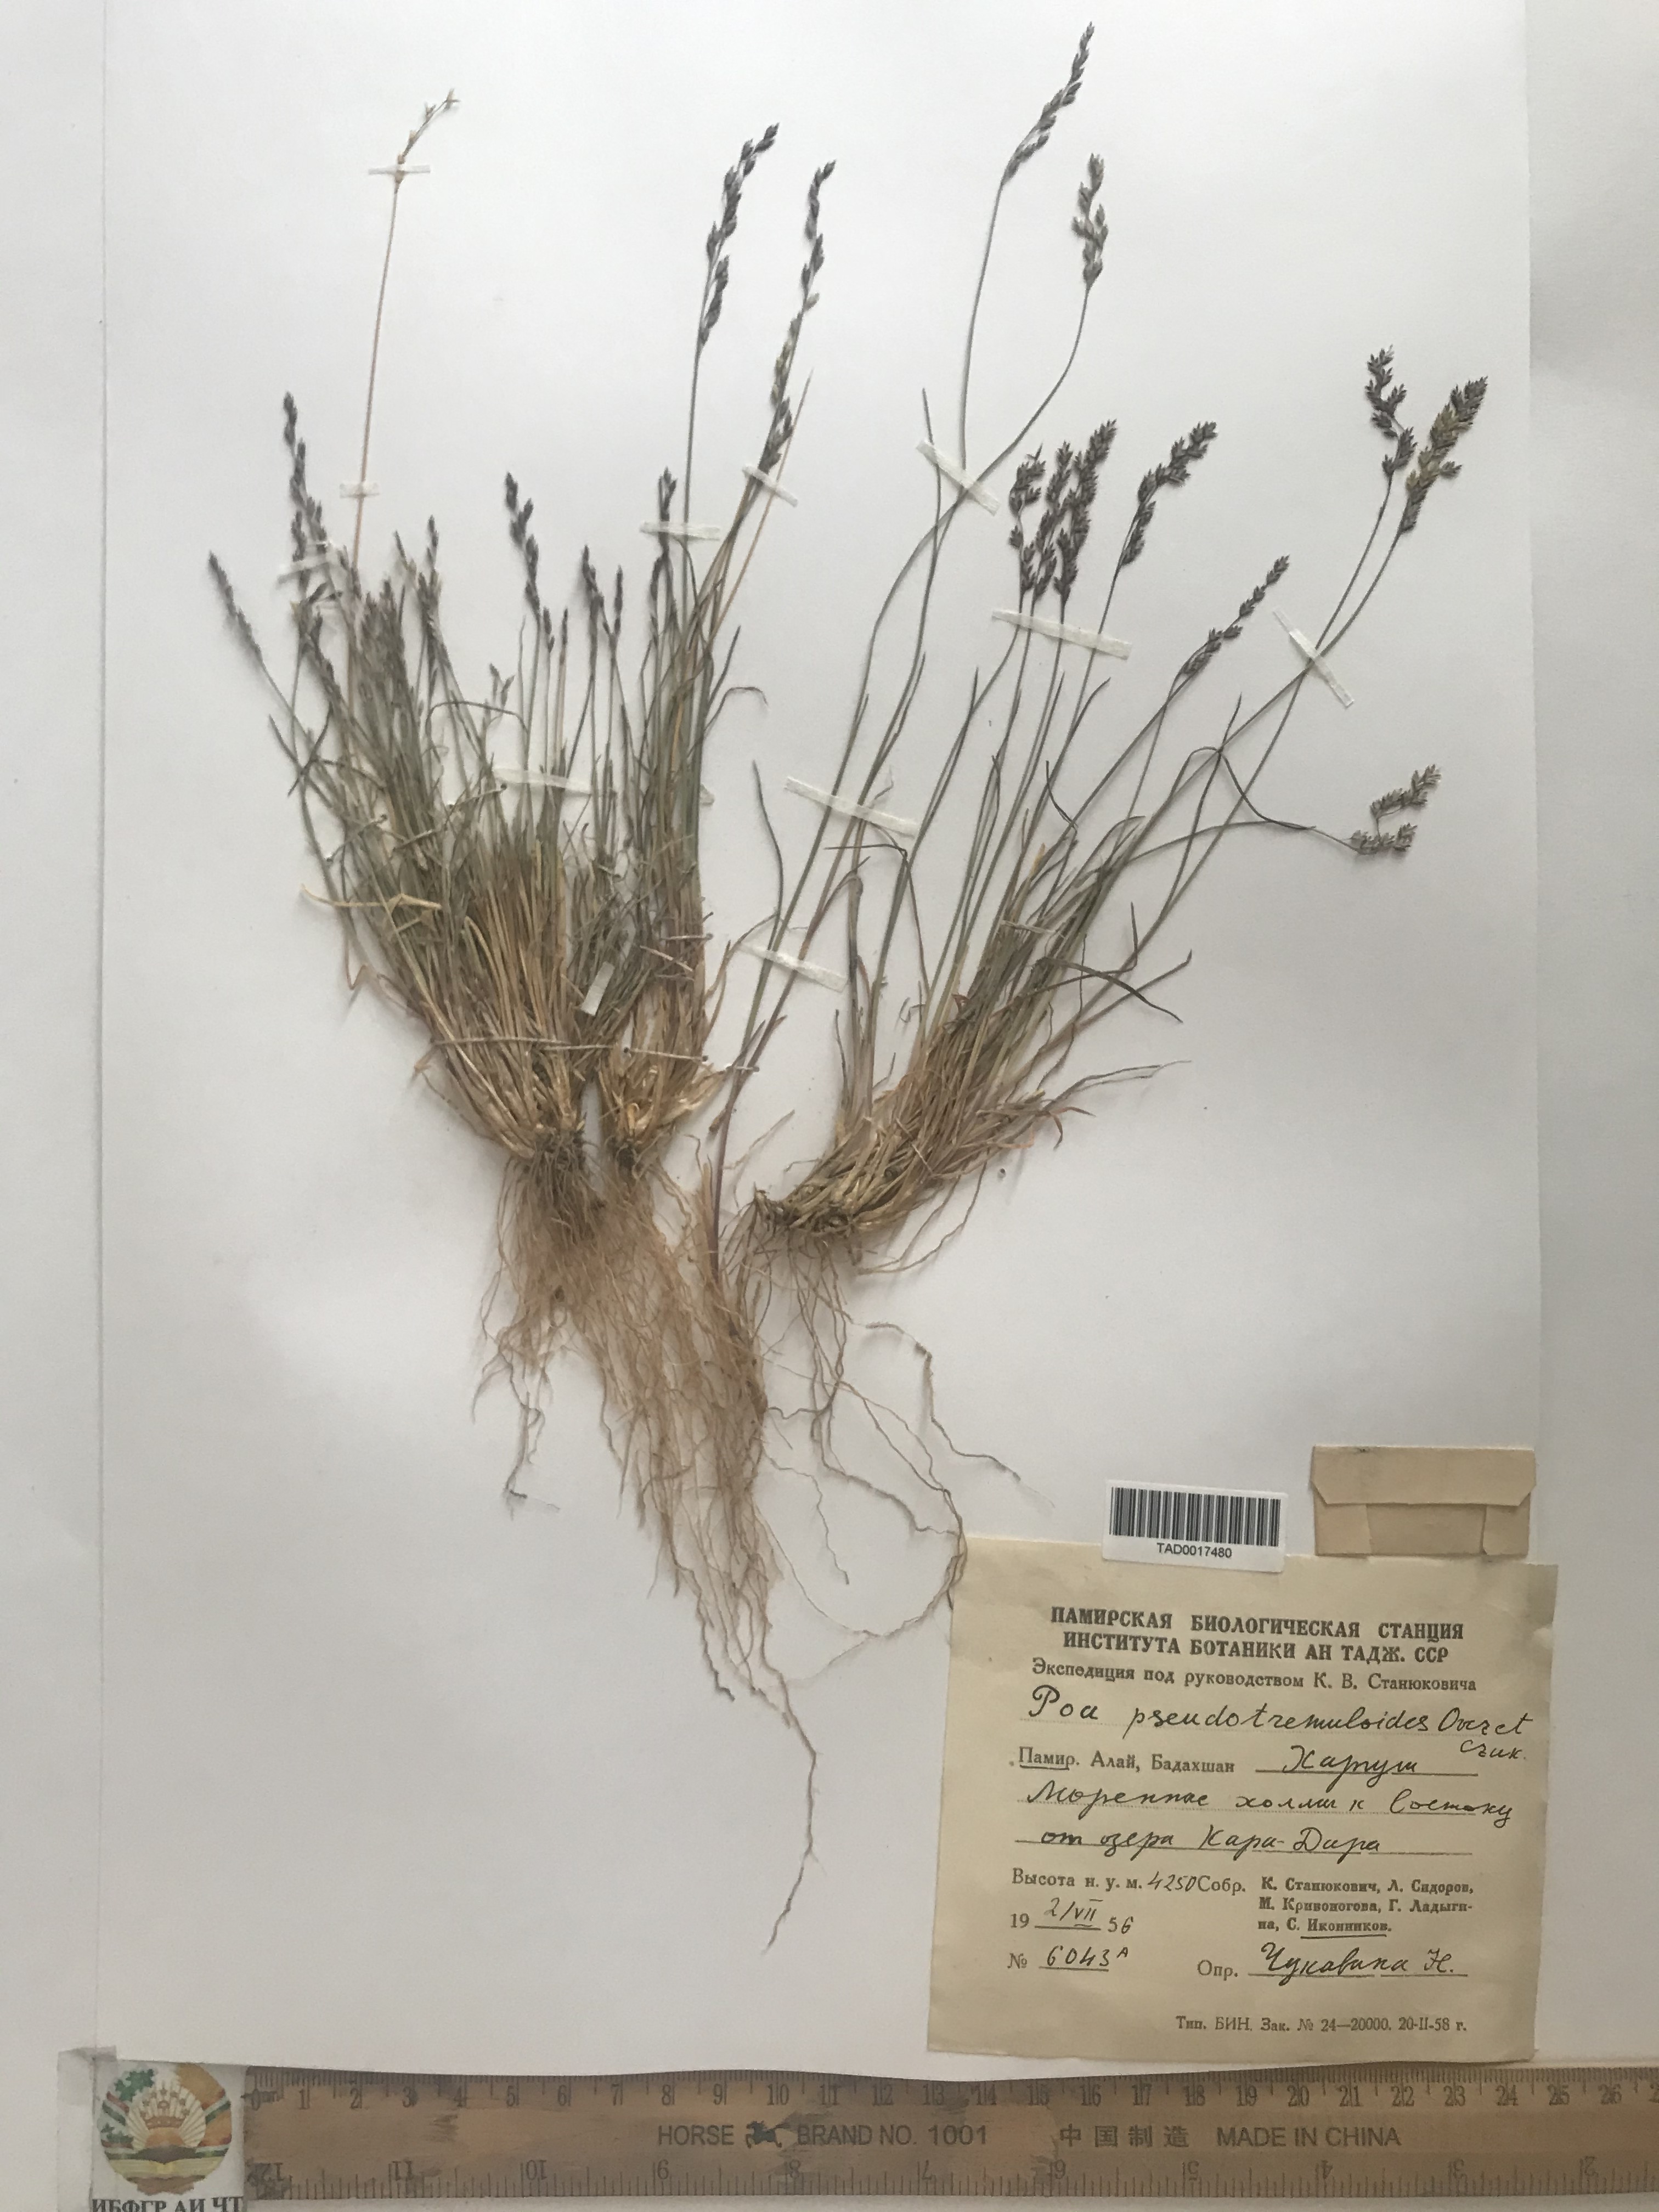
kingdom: Plantae
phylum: Tracheophyta
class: Liliopsida
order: Poales
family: Poaceae
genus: Poa
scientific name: Poa glauca
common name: Glaucous bluegrass
